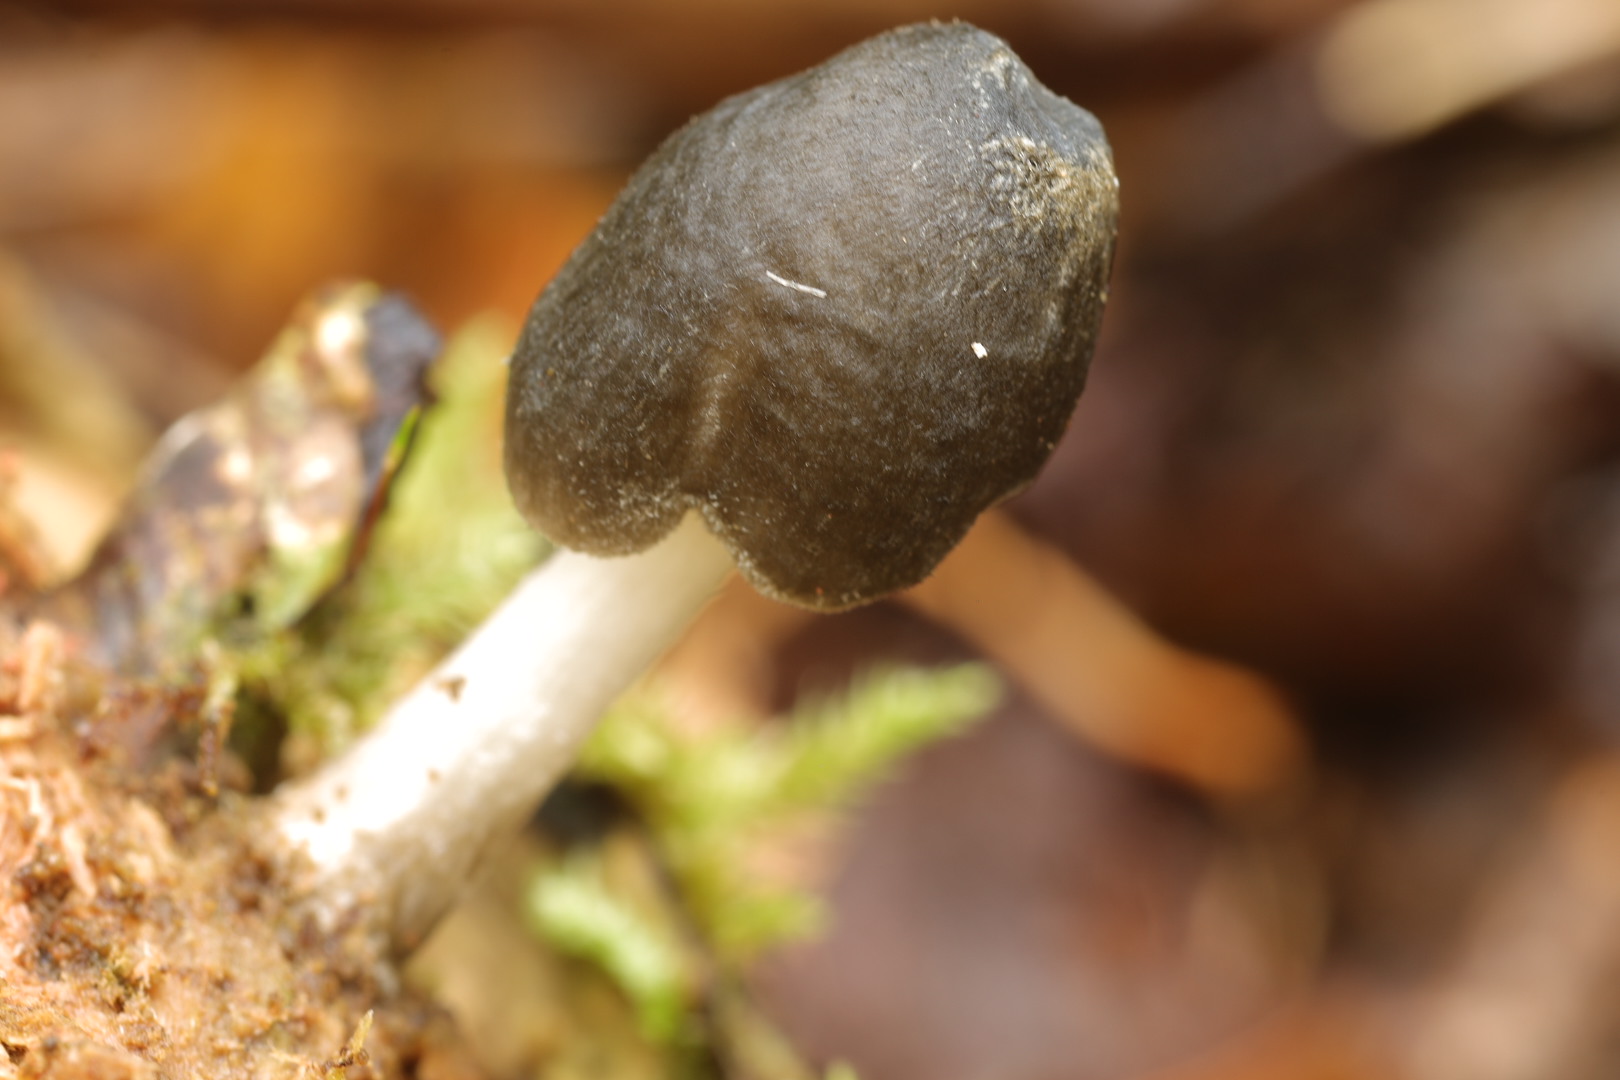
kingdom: Fungi
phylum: Basidiomycota
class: Agaricomycetes
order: Agaricales
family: Pluteaceae
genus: Pluteus
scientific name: Pluteus salicinus
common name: stiv skærmhat
